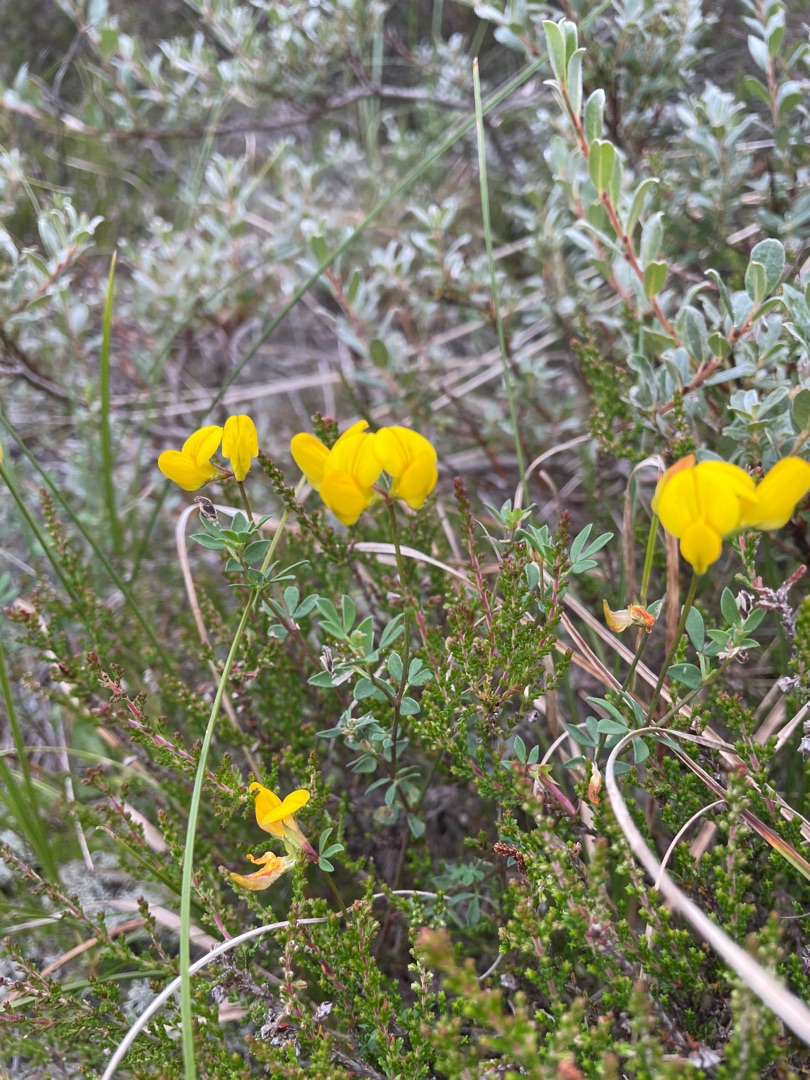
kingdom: Plantae
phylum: Tracheophyta
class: Magnoliopsida
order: Fabales
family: Fabaceae
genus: Lotus
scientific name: Lotus corniculatus
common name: Almindelig kællingetand
